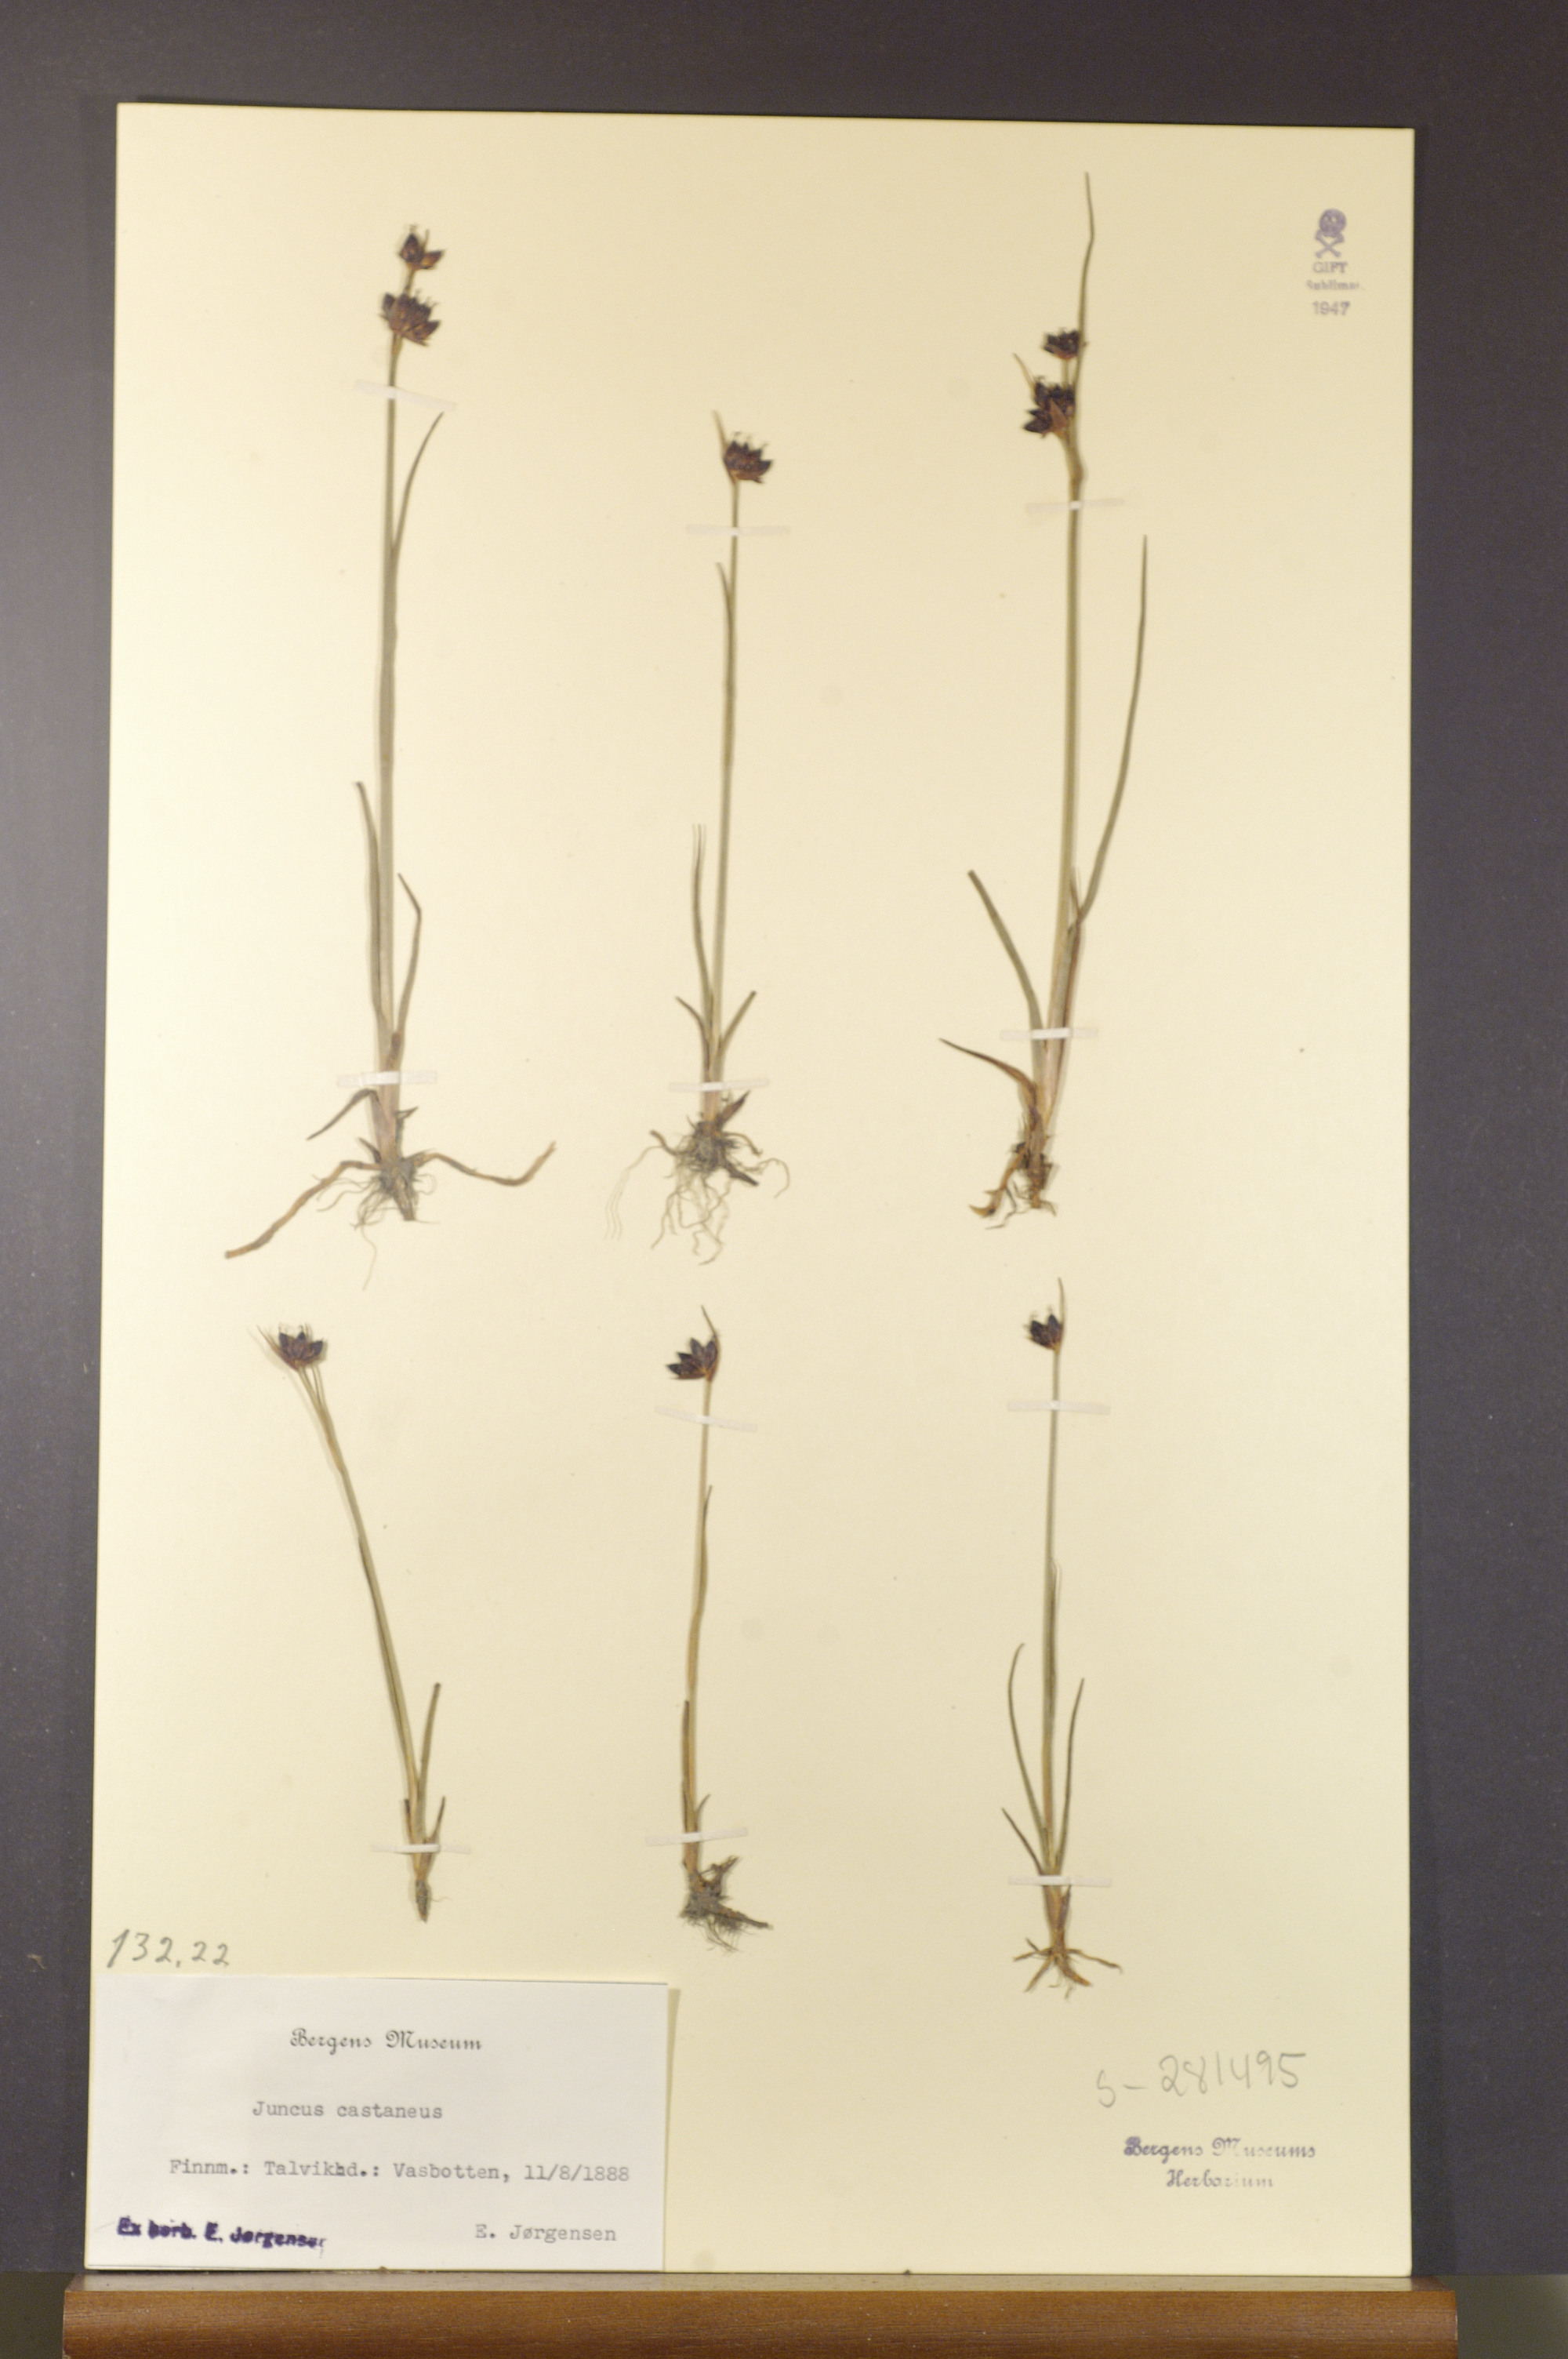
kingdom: Plantae
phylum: Tracheophyta
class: Liliopsida
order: Poales
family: Juncaceae
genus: Juncus
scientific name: Juncus castaneus
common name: Chestnut rush
